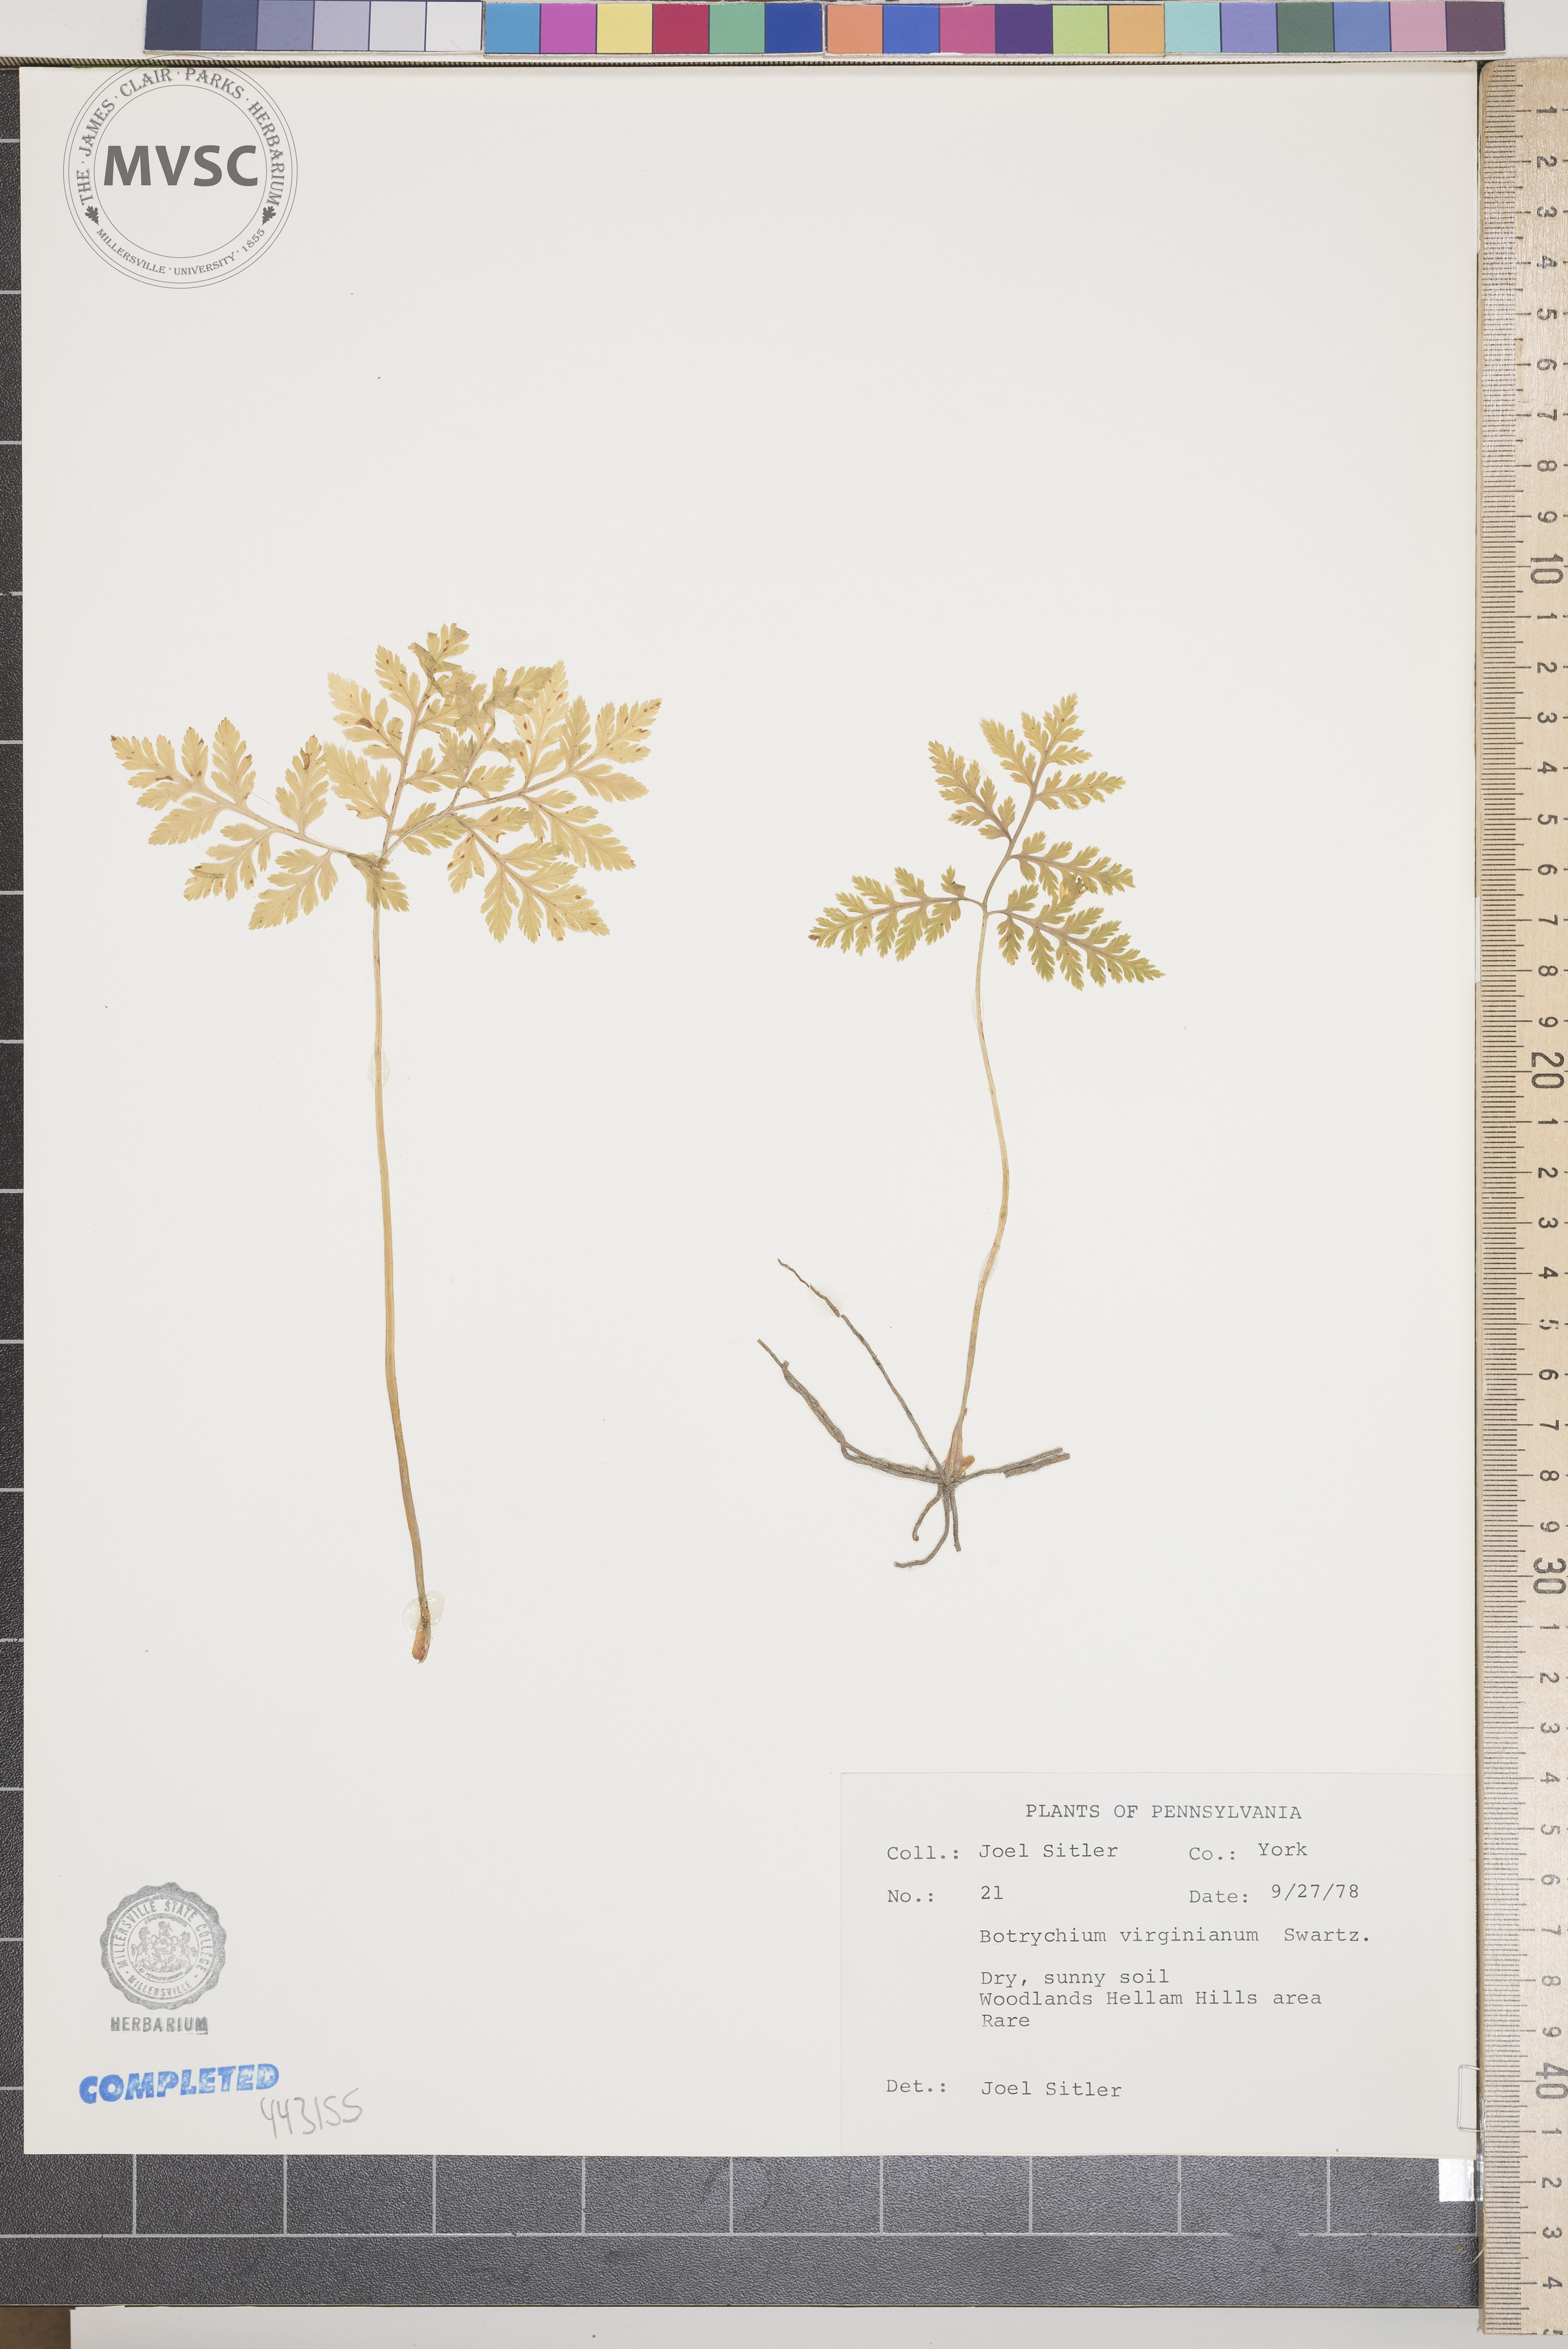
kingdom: Plantae
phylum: Tracheophyta
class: Polypodiopsida
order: Ophioglossales
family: Ophioglossaceae
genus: Botrychium
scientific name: Botrychium virginianum
